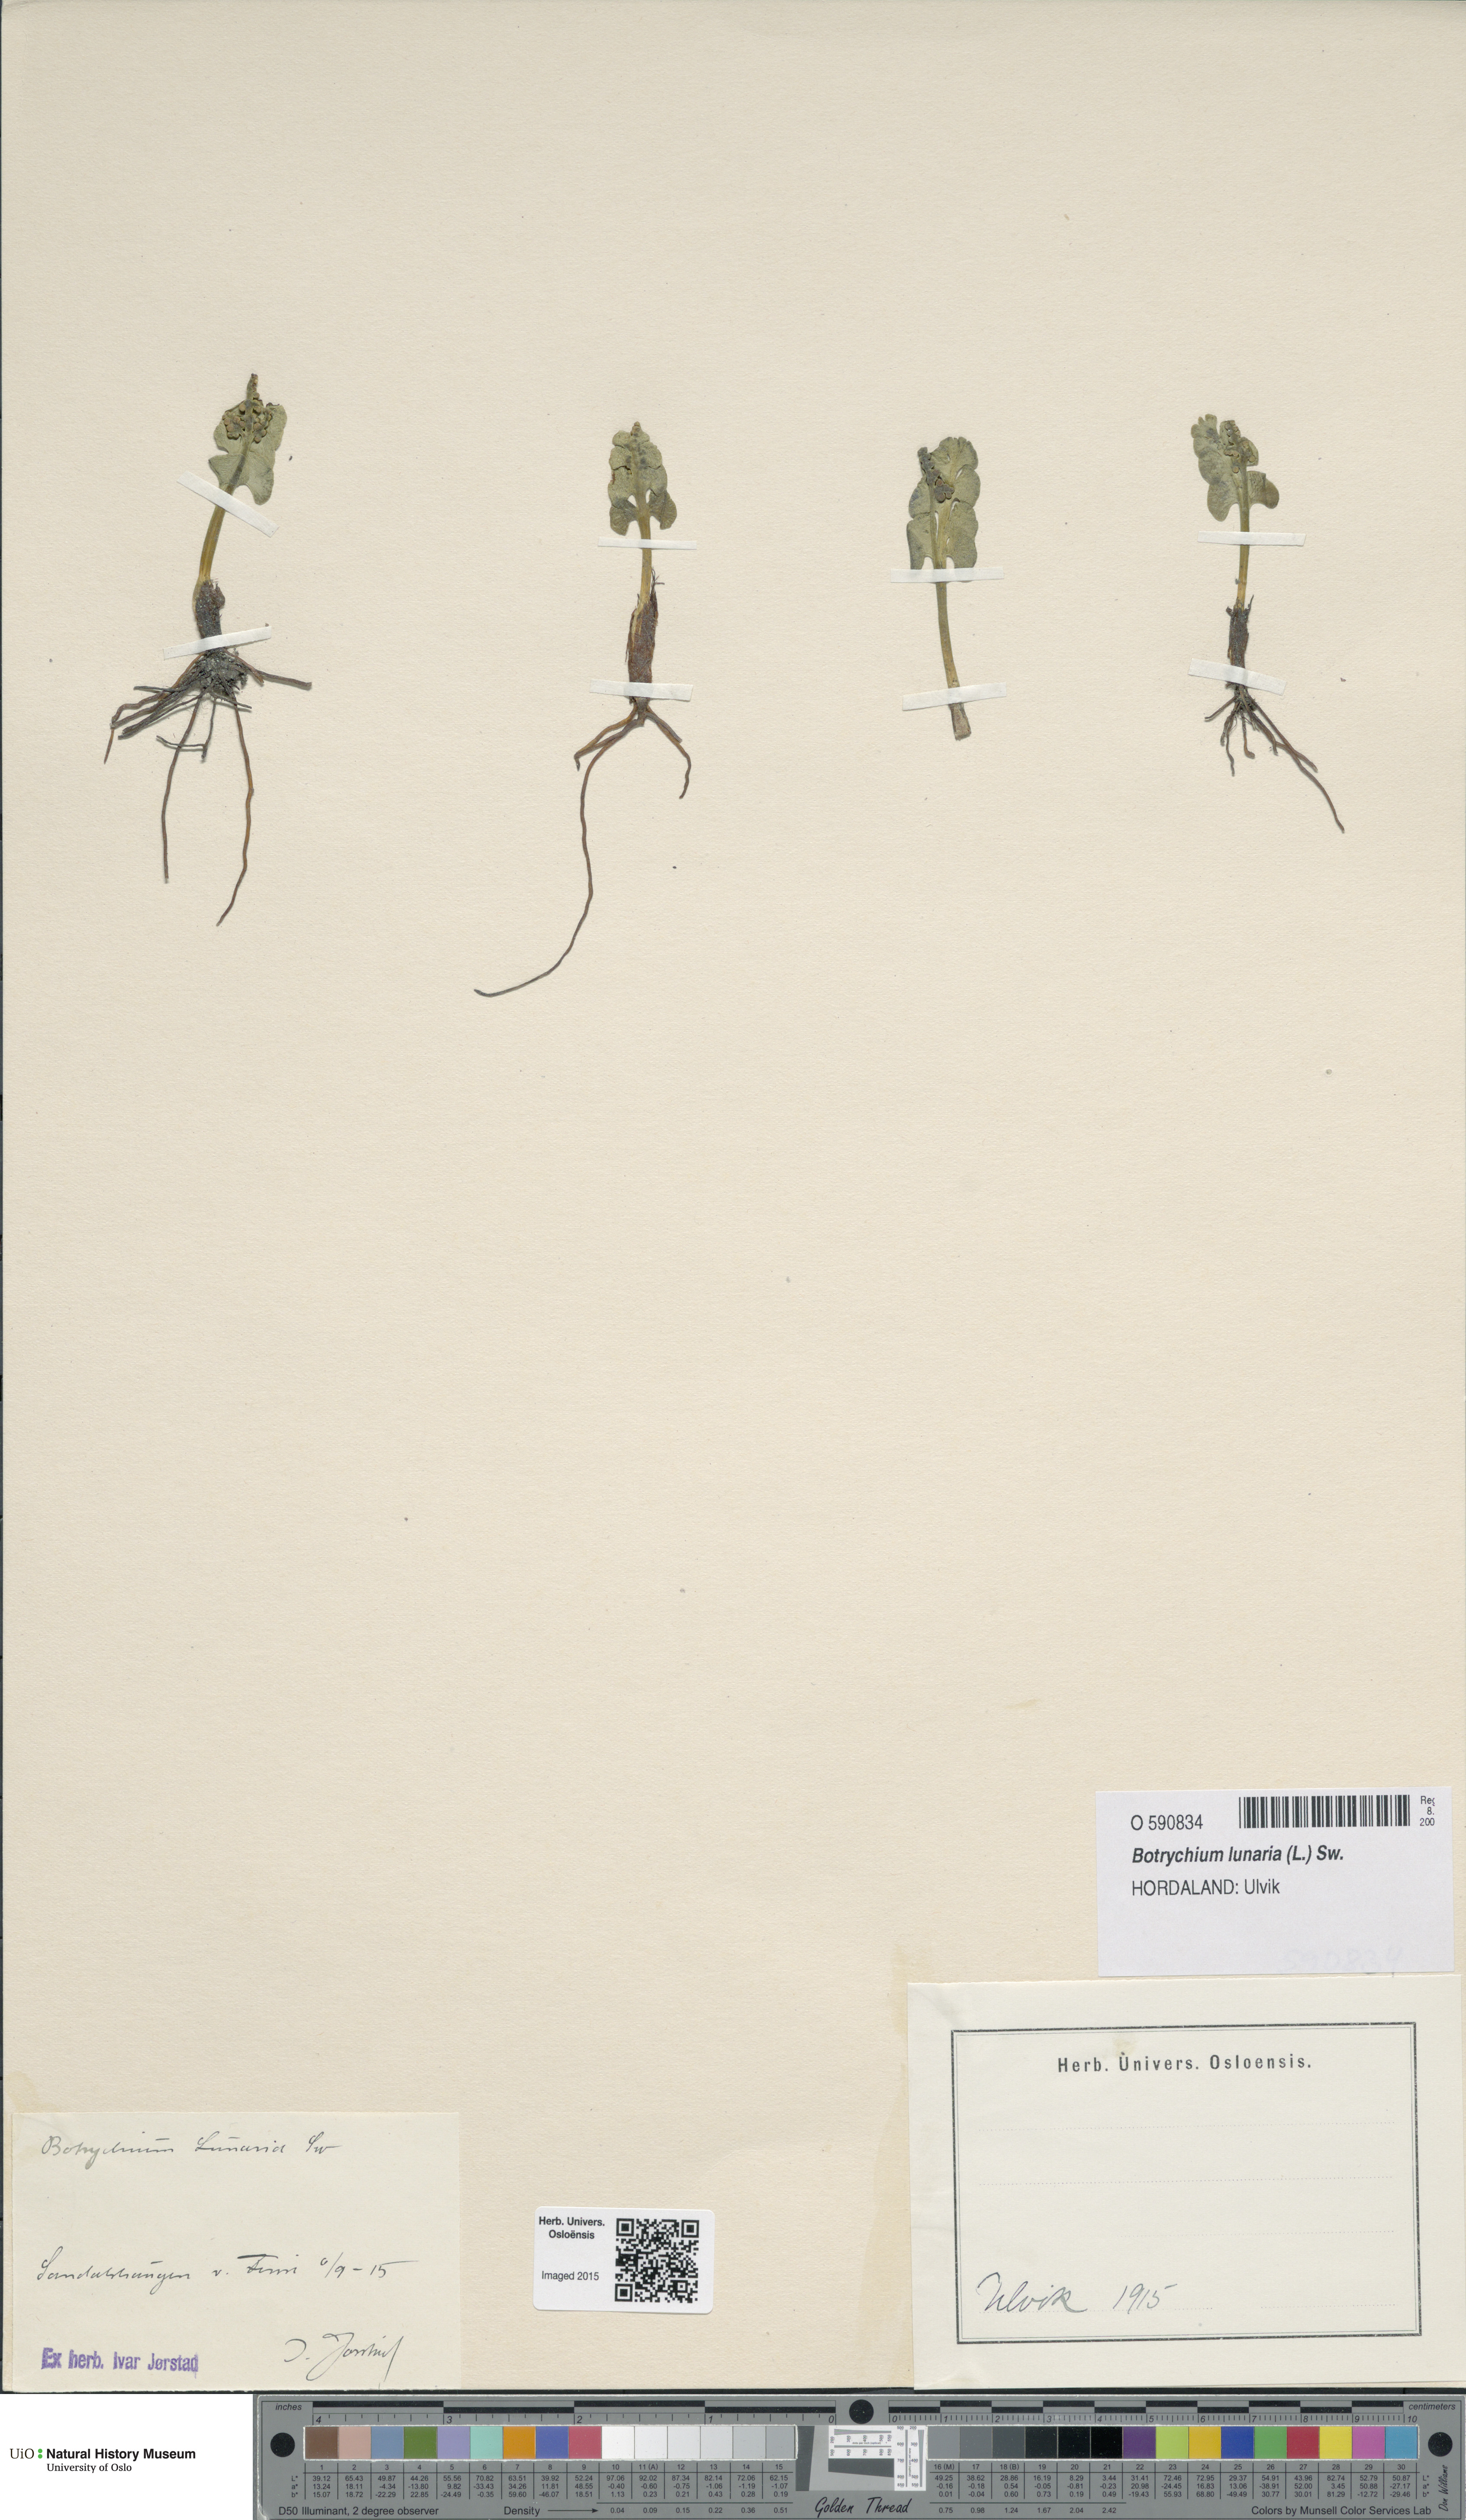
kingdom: Plantae
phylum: Tracheophyta
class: Polypodiopsida
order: Ophioglossales
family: Ophioglossaceae
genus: Botrychium
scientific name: Botrychium lunaria
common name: Moonwort
